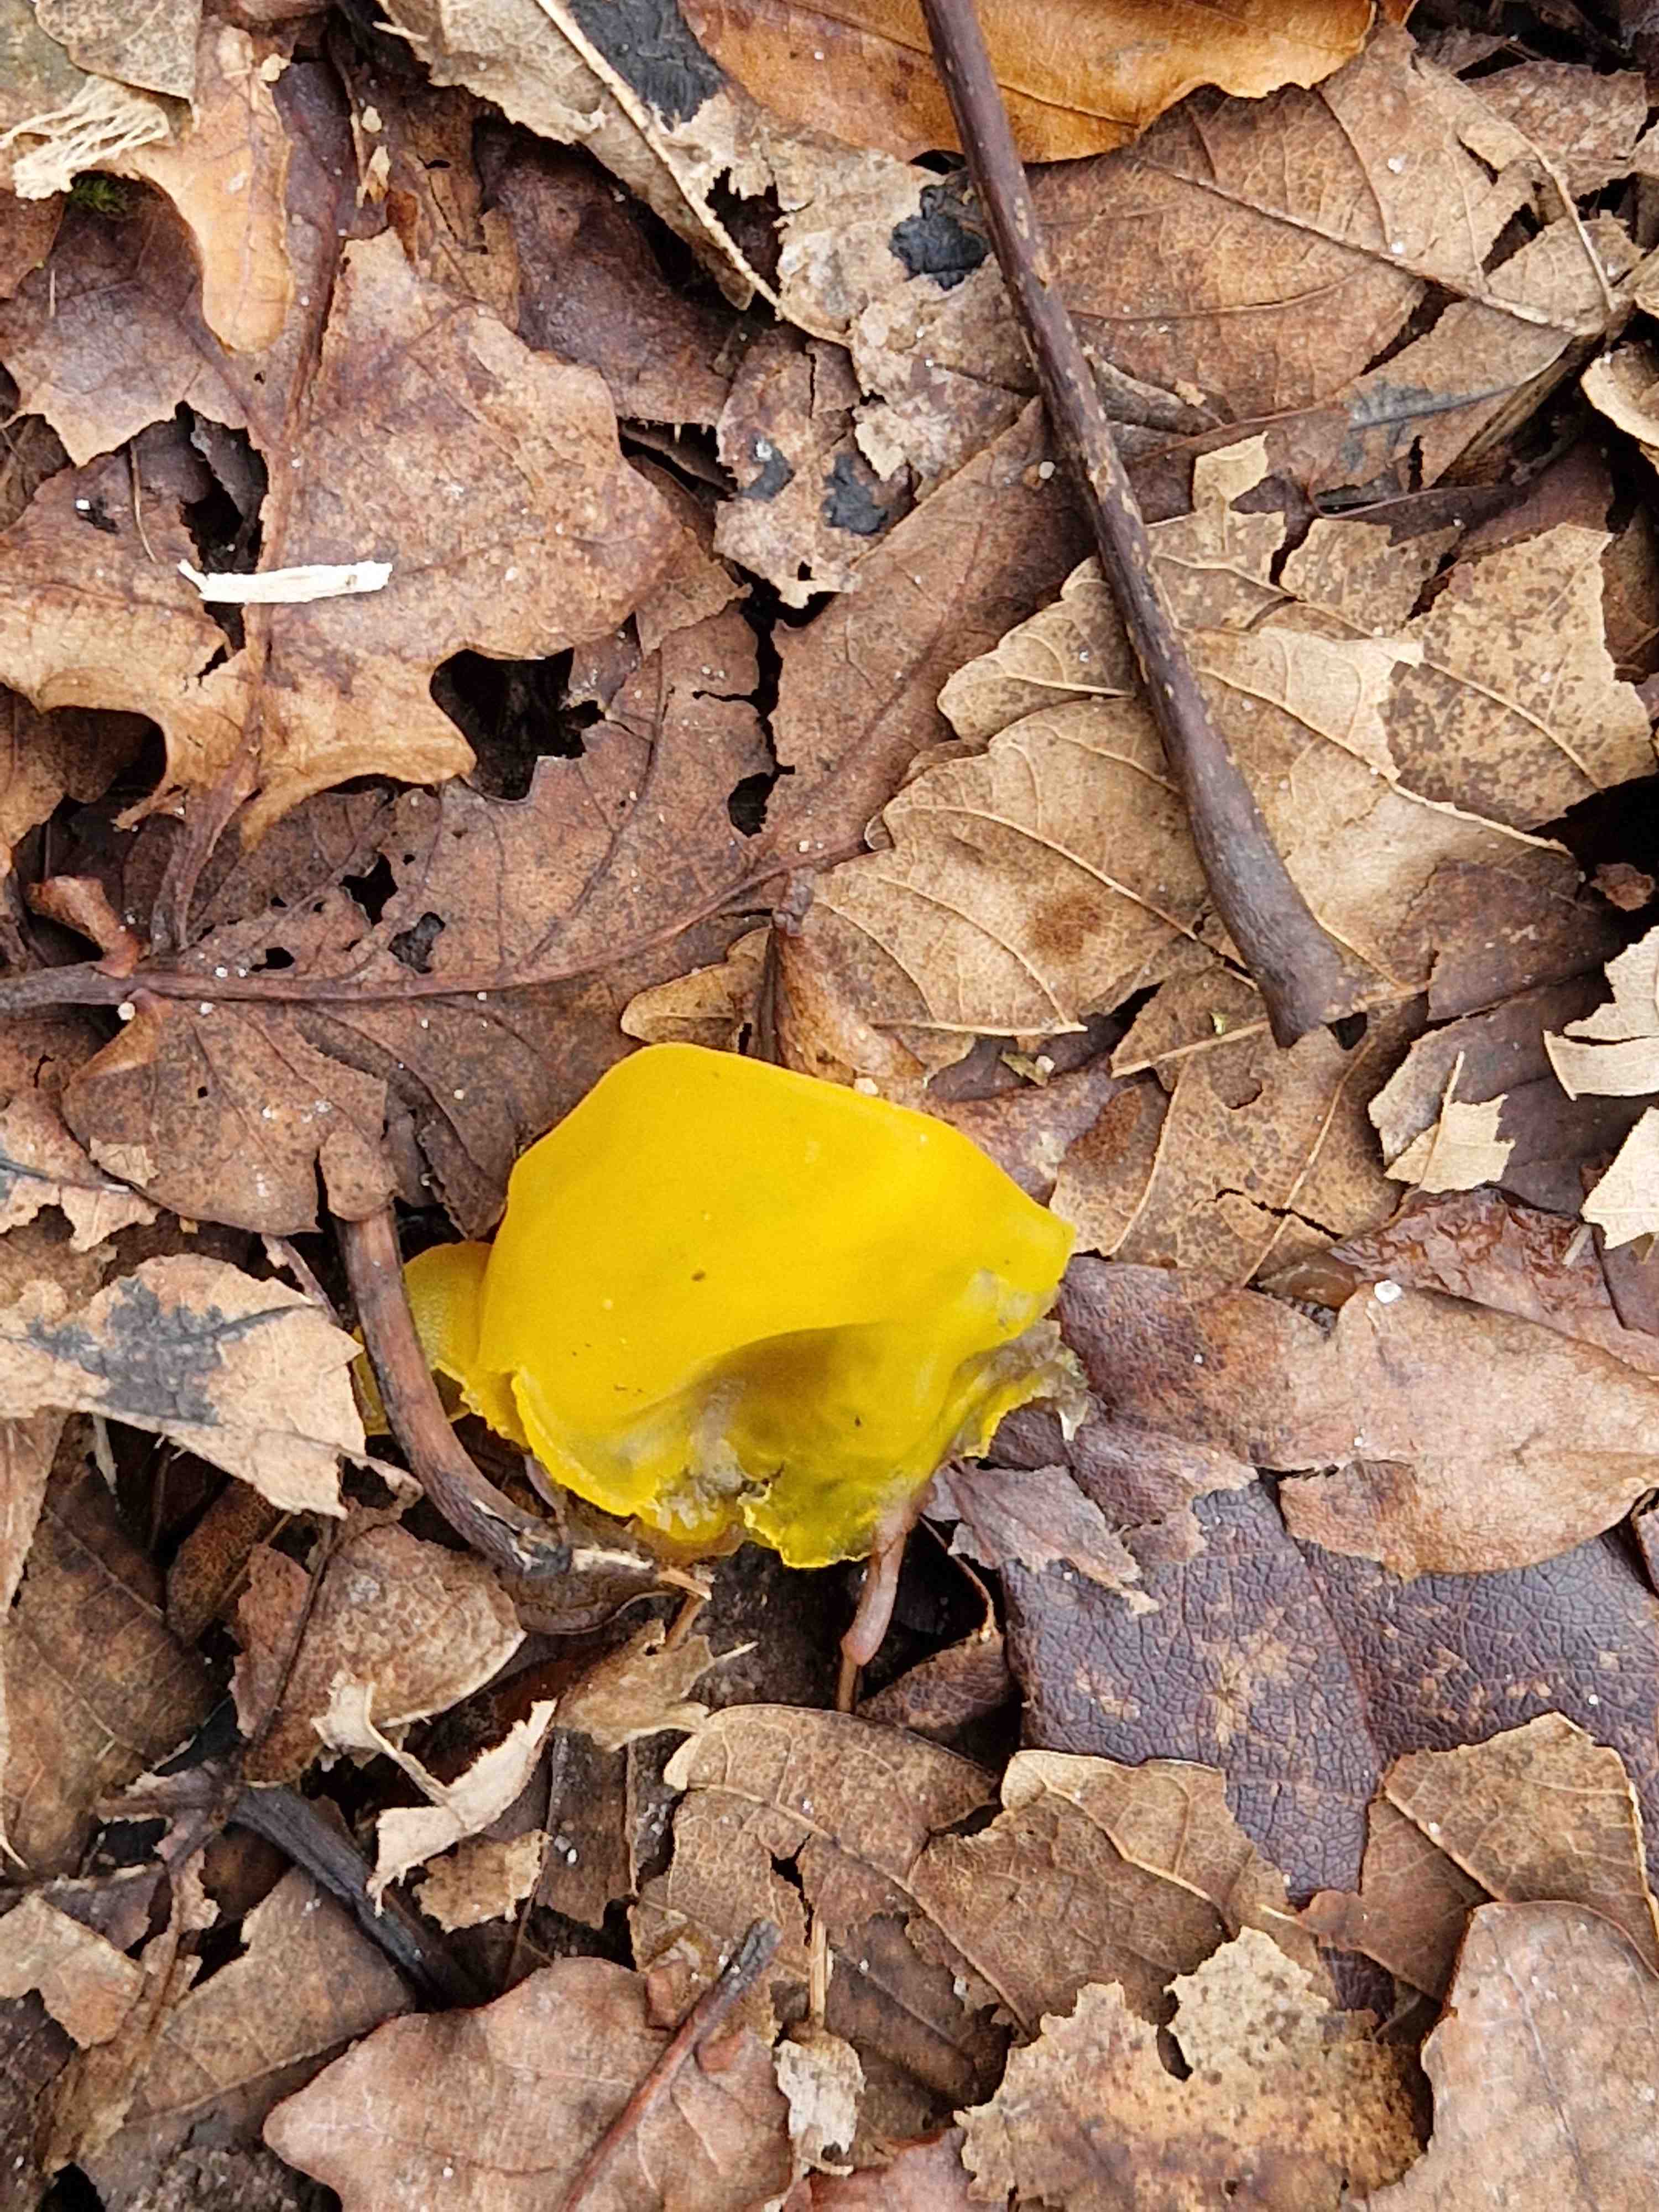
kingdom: Fungi
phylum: Basidiomycota
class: Tremellomycetes
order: Tremellales
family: Tremellaceae
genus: Tremella
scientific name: Tremella mesenterica
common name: gul bævresvamp
